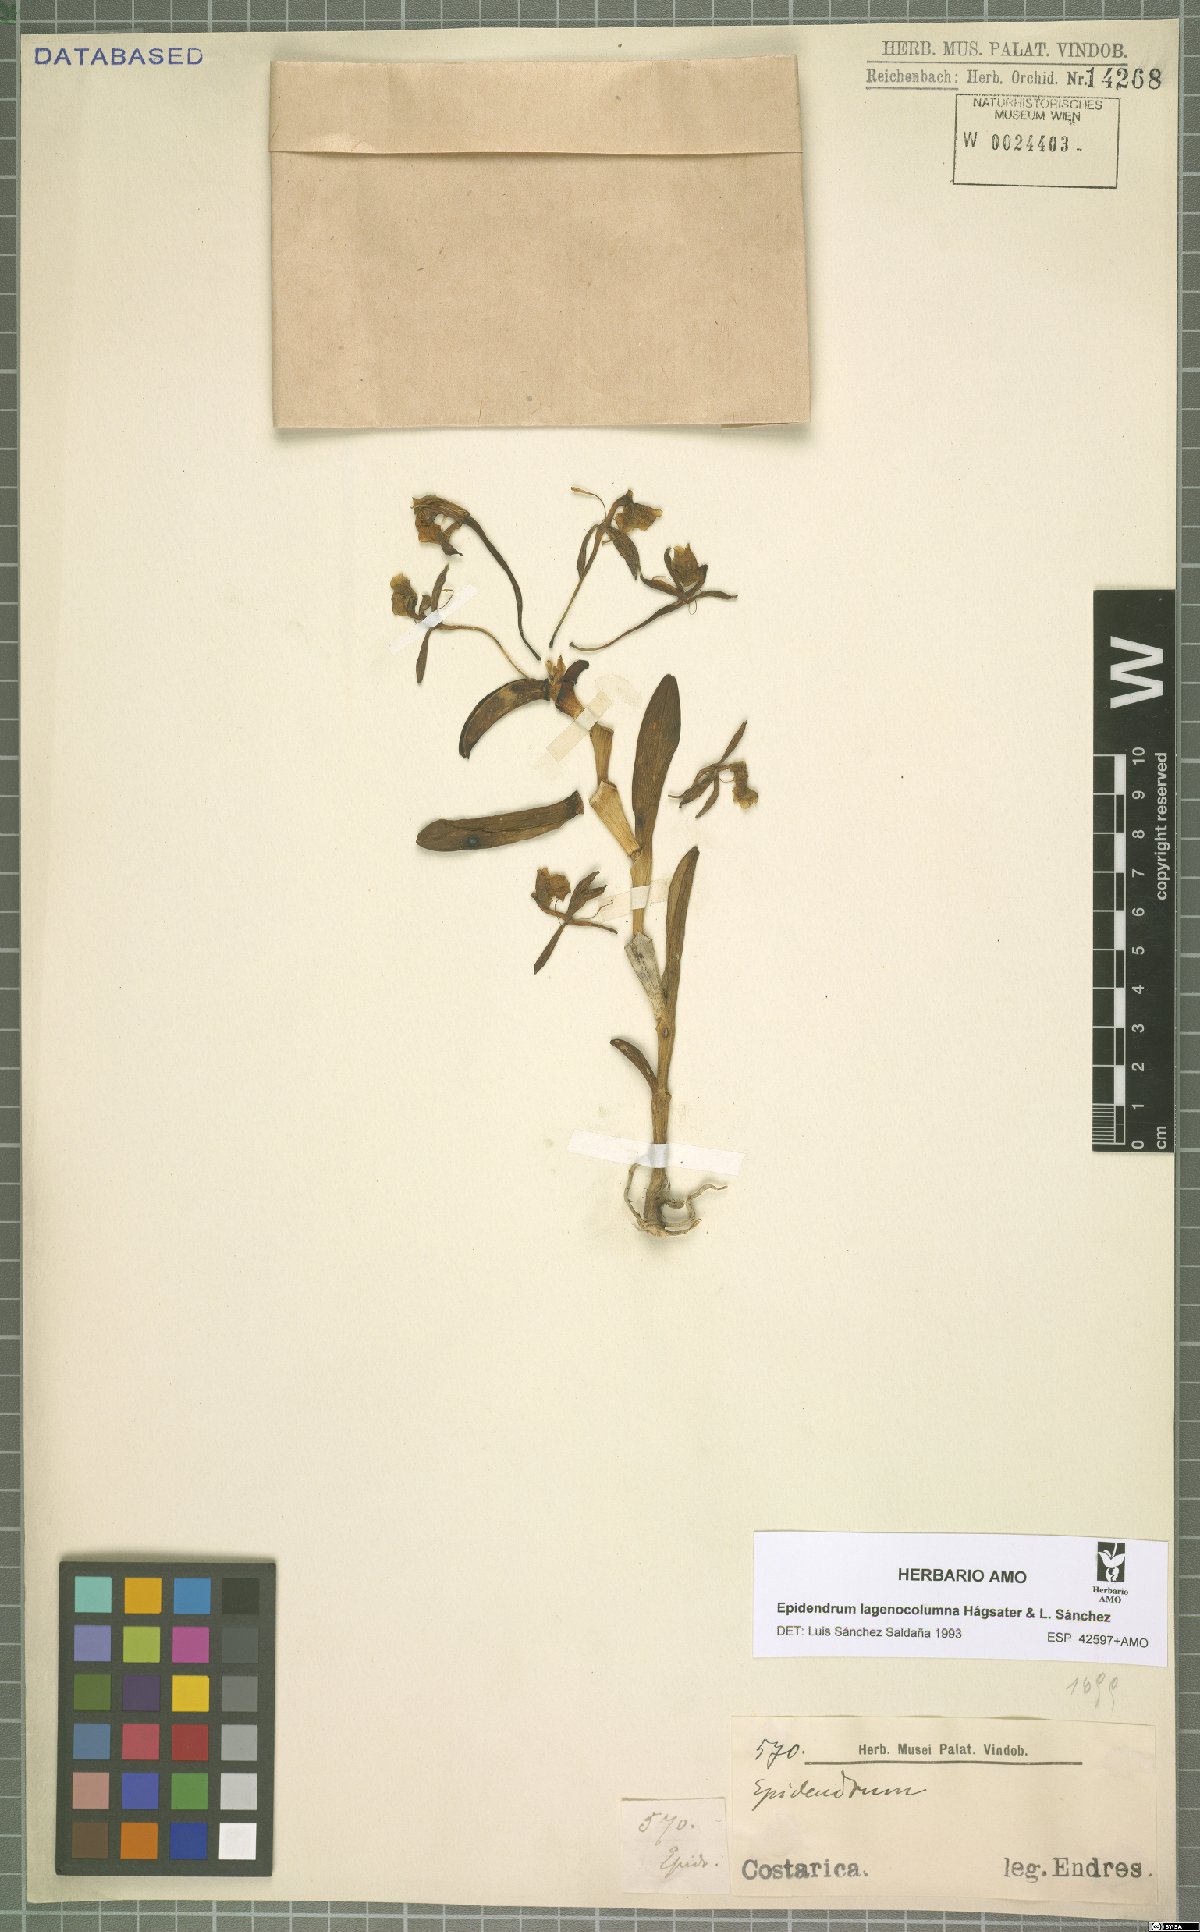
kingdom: Plantae
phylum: Tracheophyta
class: Liliopsida
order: Asparagales
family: Orchidaceae
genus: Epidendrum
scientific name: Epidendrum lagenocolumna
